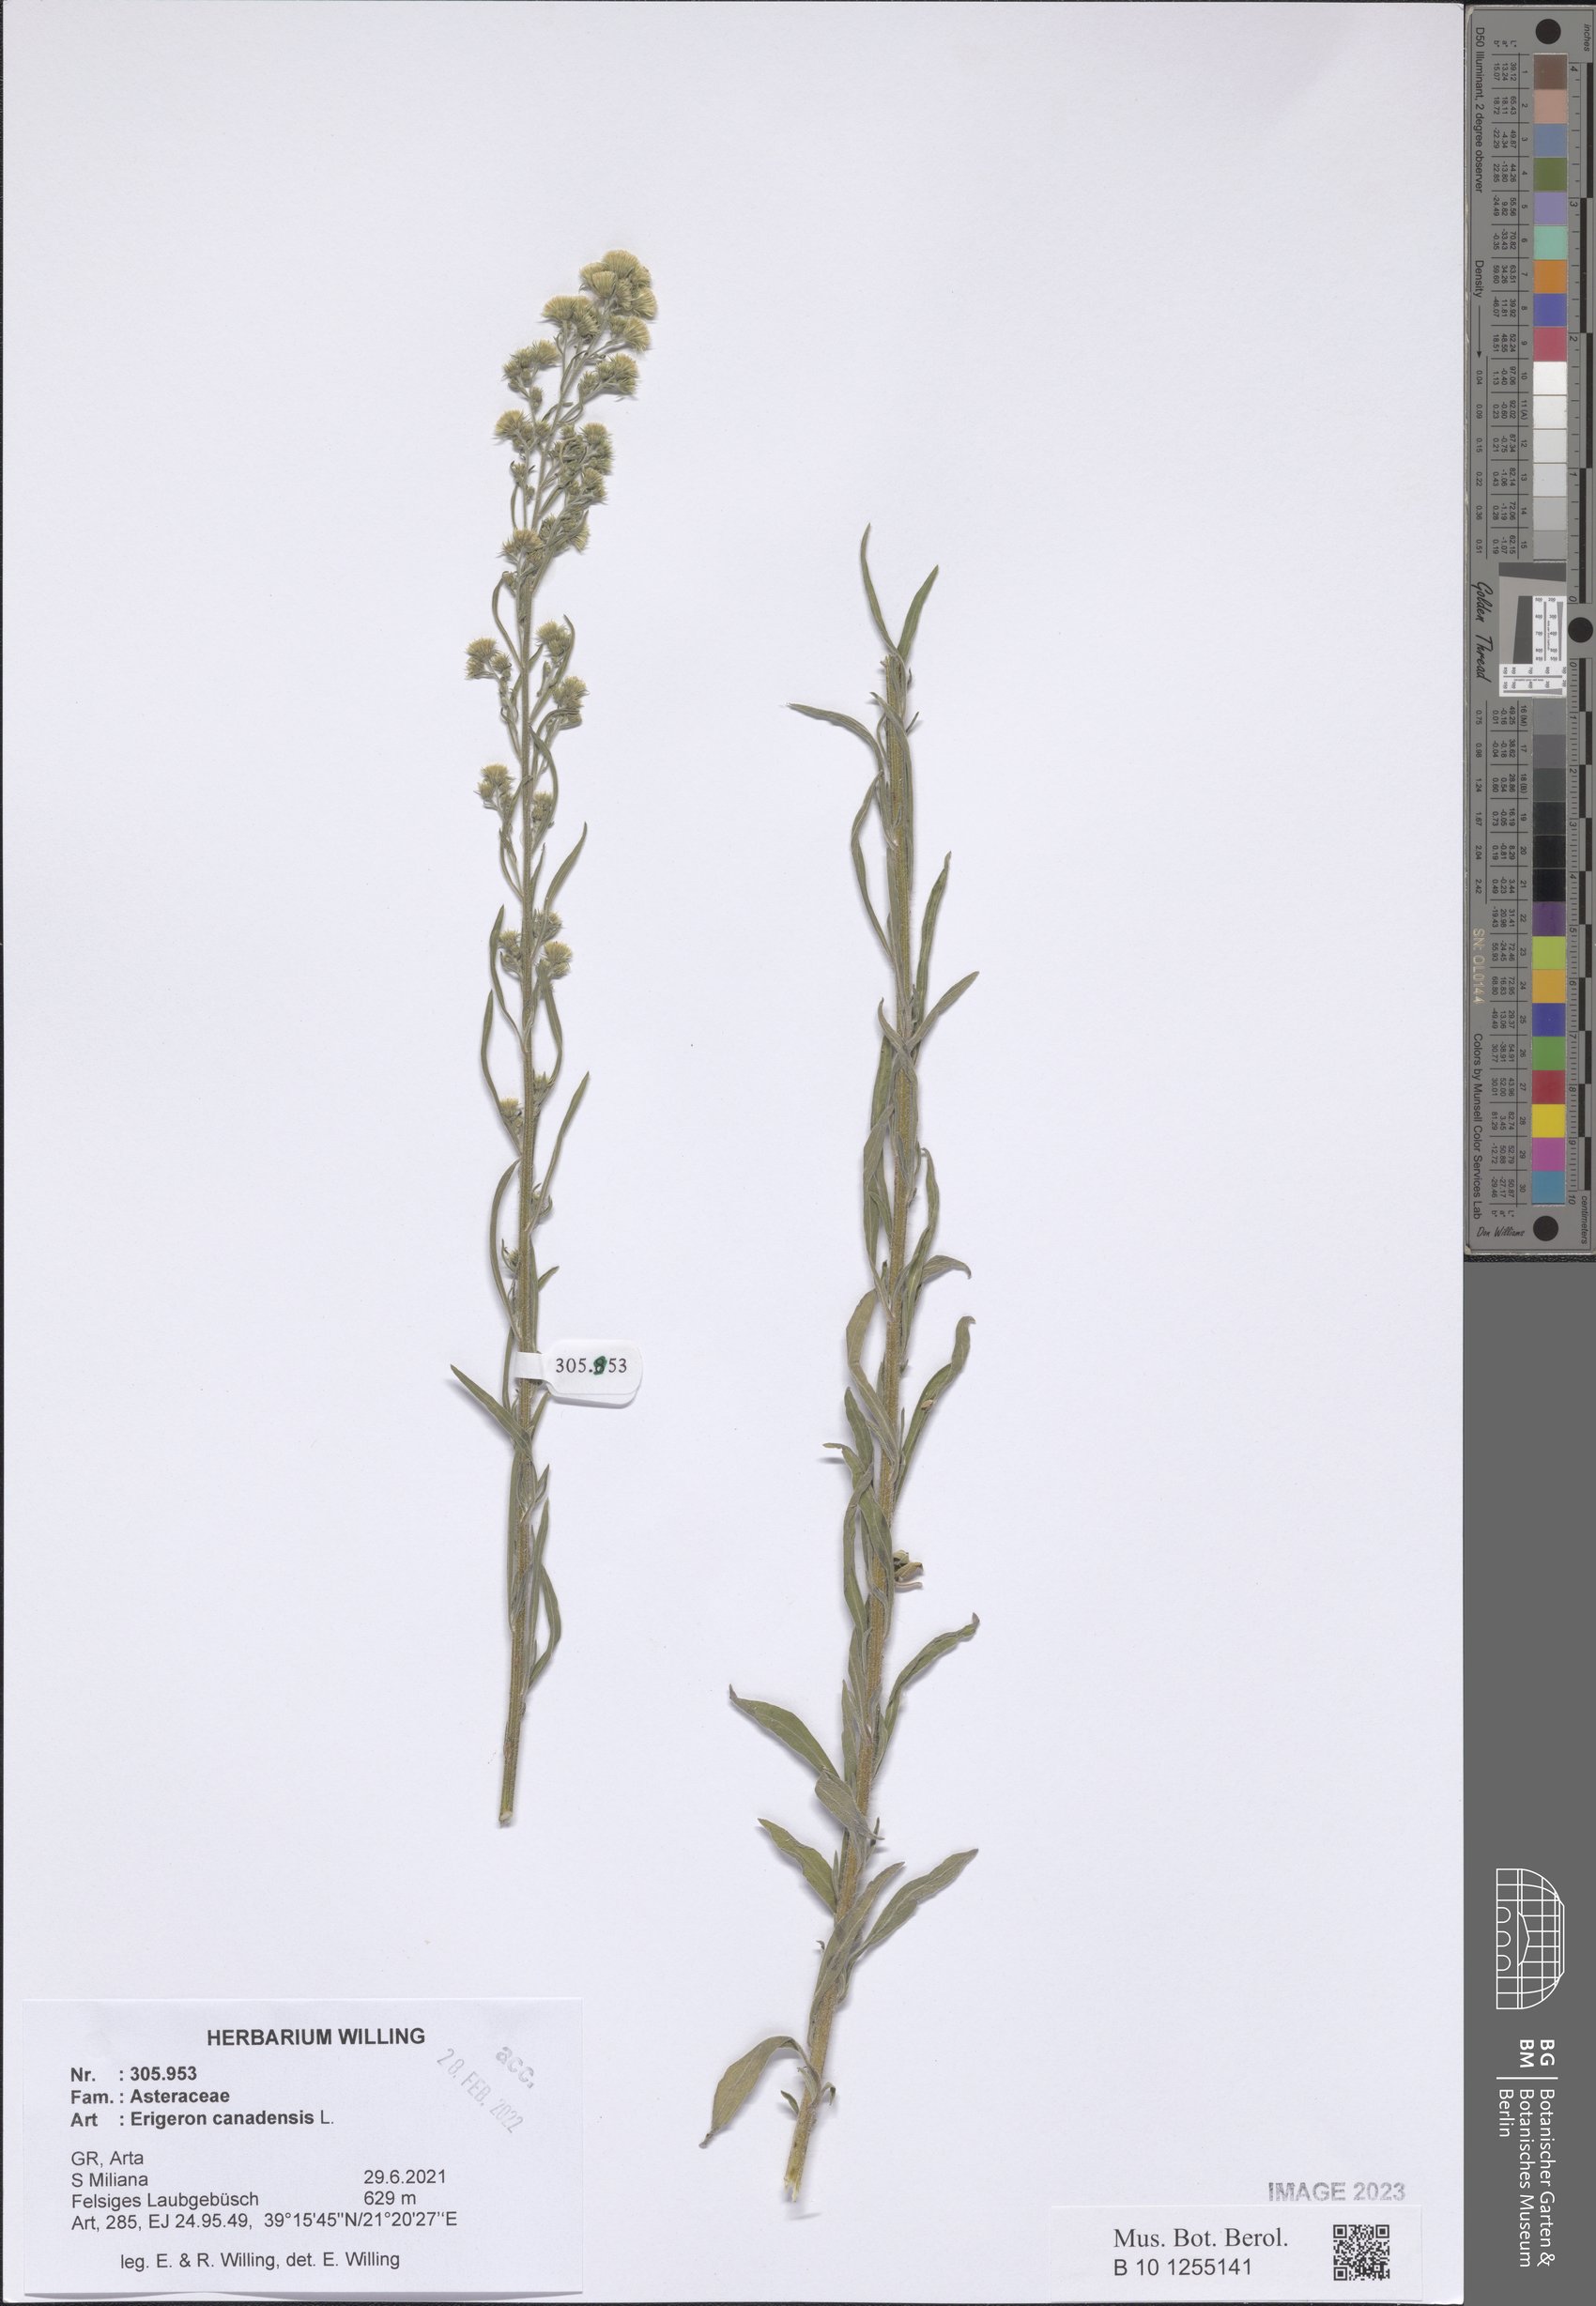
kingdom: Plantae
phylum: Tracheophyta
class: Magnoliopsida
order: Asterales
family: Asteraceae
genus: Erigeron
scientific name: Erigeron canadensis
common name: Canadian fleabane
